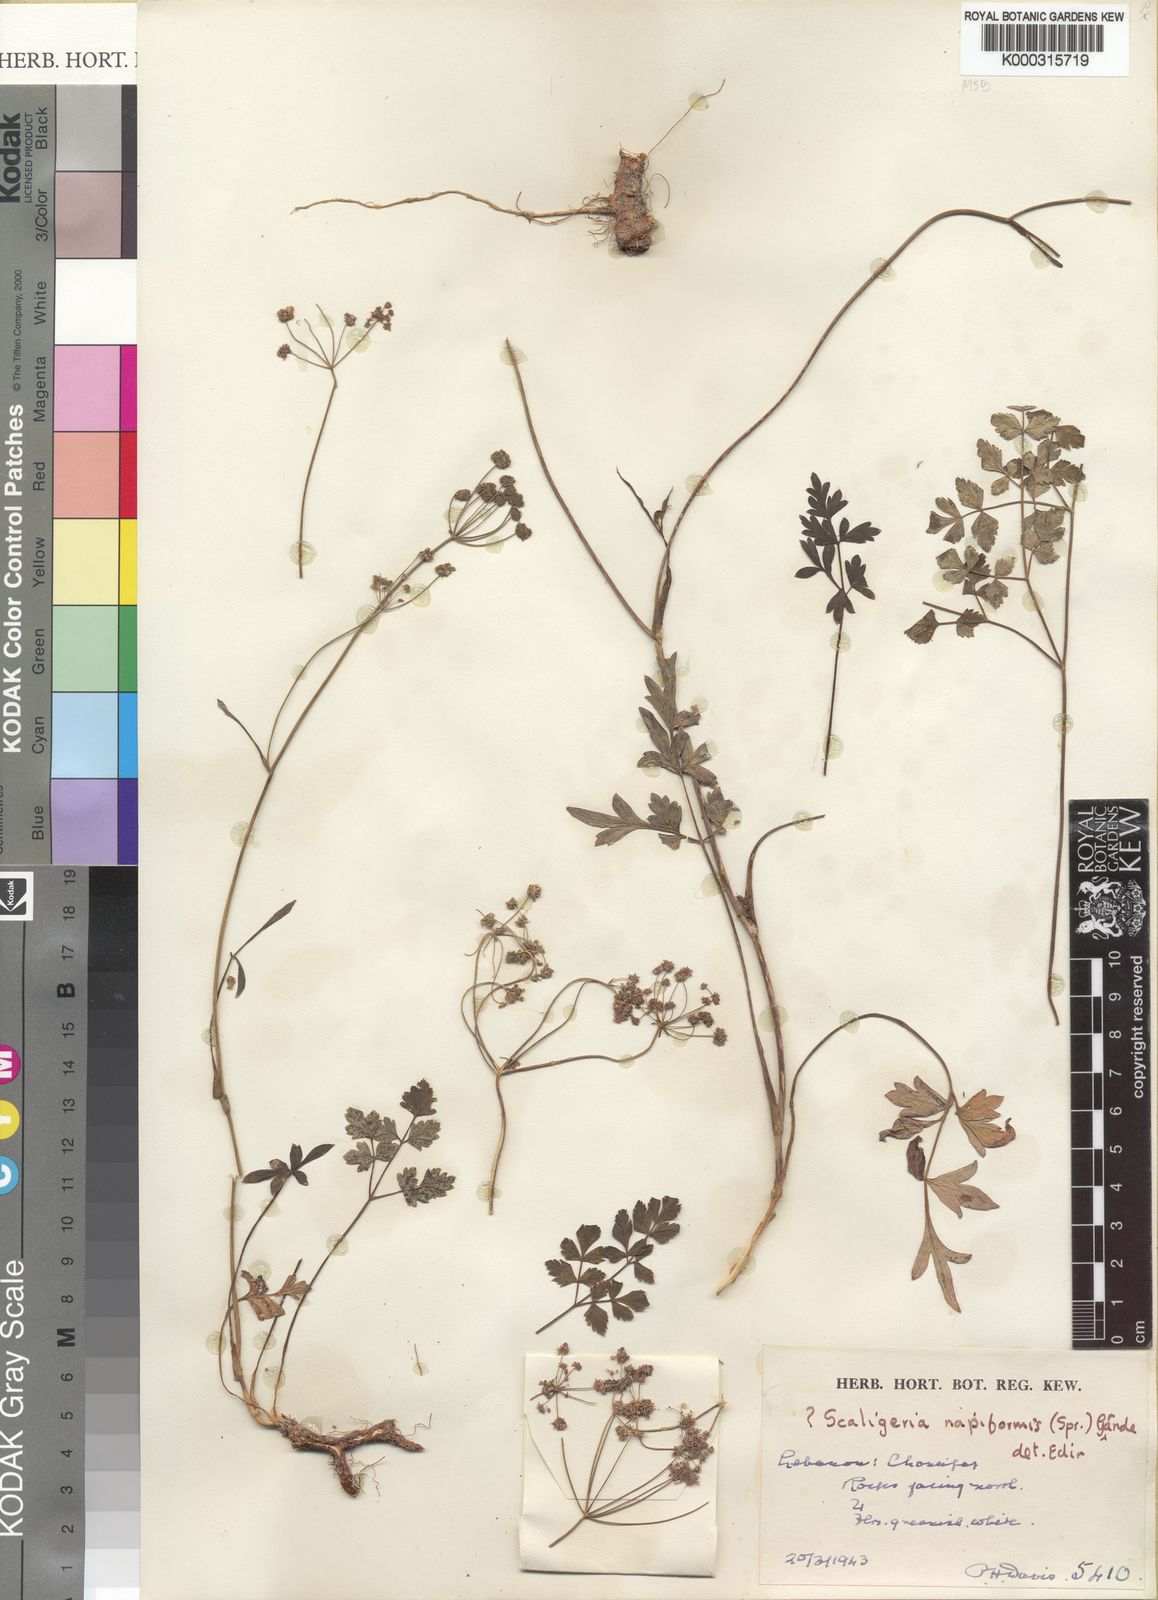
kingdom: Plantae
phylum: Tracheophyta
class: Magnoliopsida
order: Apiales
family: Apiaceae
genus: Scaligeria
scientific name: Scaligeria napiformis
